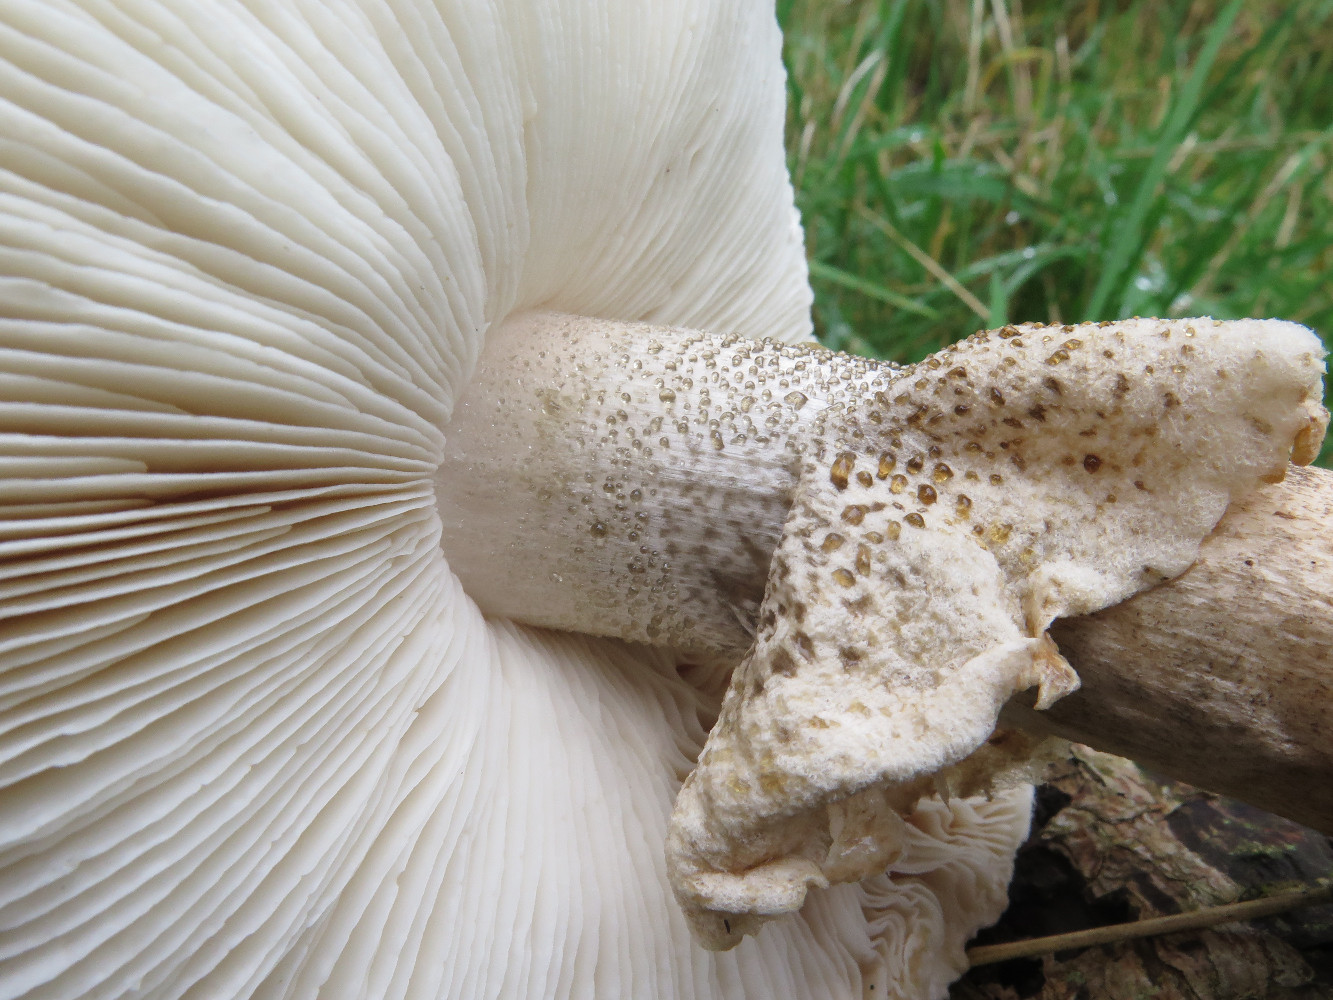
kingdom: Fungi
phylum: Basidiomycota
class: Agaricomycetes
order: Agaricales
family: Amanitaceae
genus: Limacellopsis
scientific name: Limacellopsis guttata
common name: tåre-snekkehat
